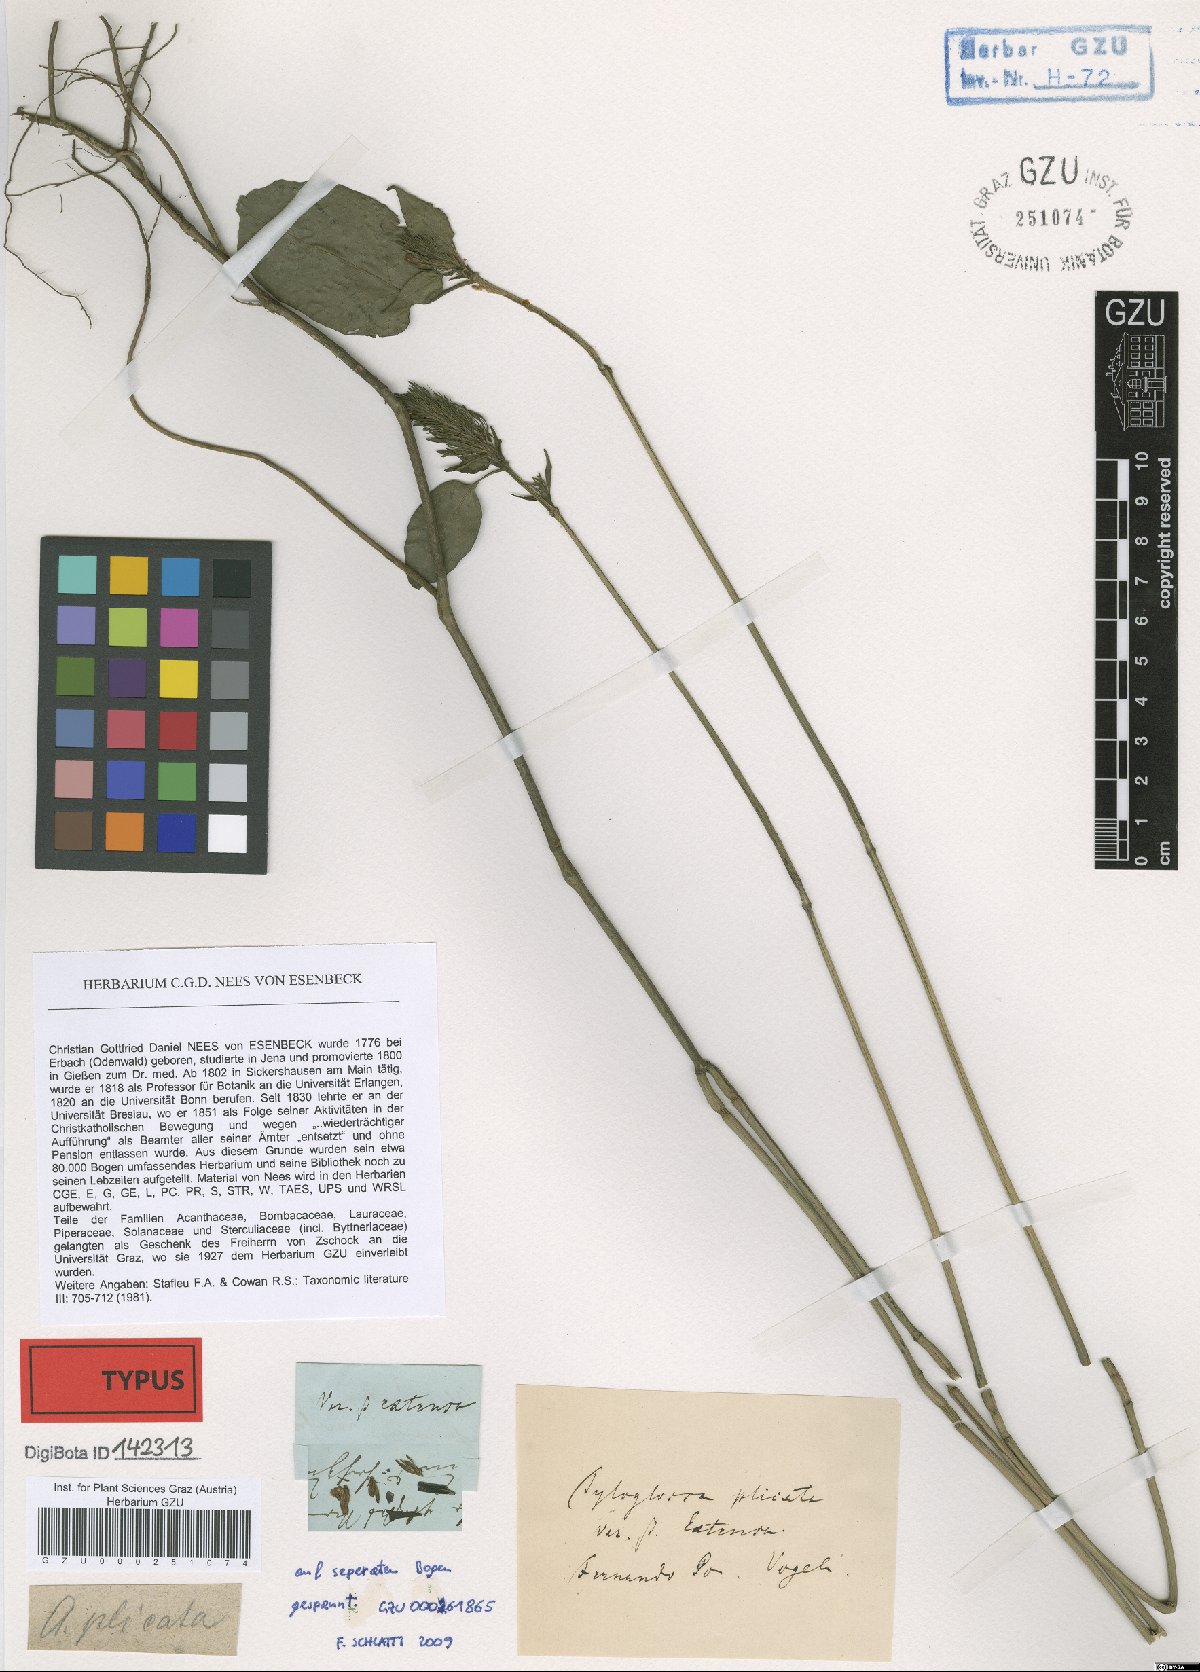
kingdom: Plantae
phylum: Tracheophyta
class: Magnoliopsida
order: Lamiales
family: Acanthaceae
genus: Justicia
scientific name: Justicia flava
